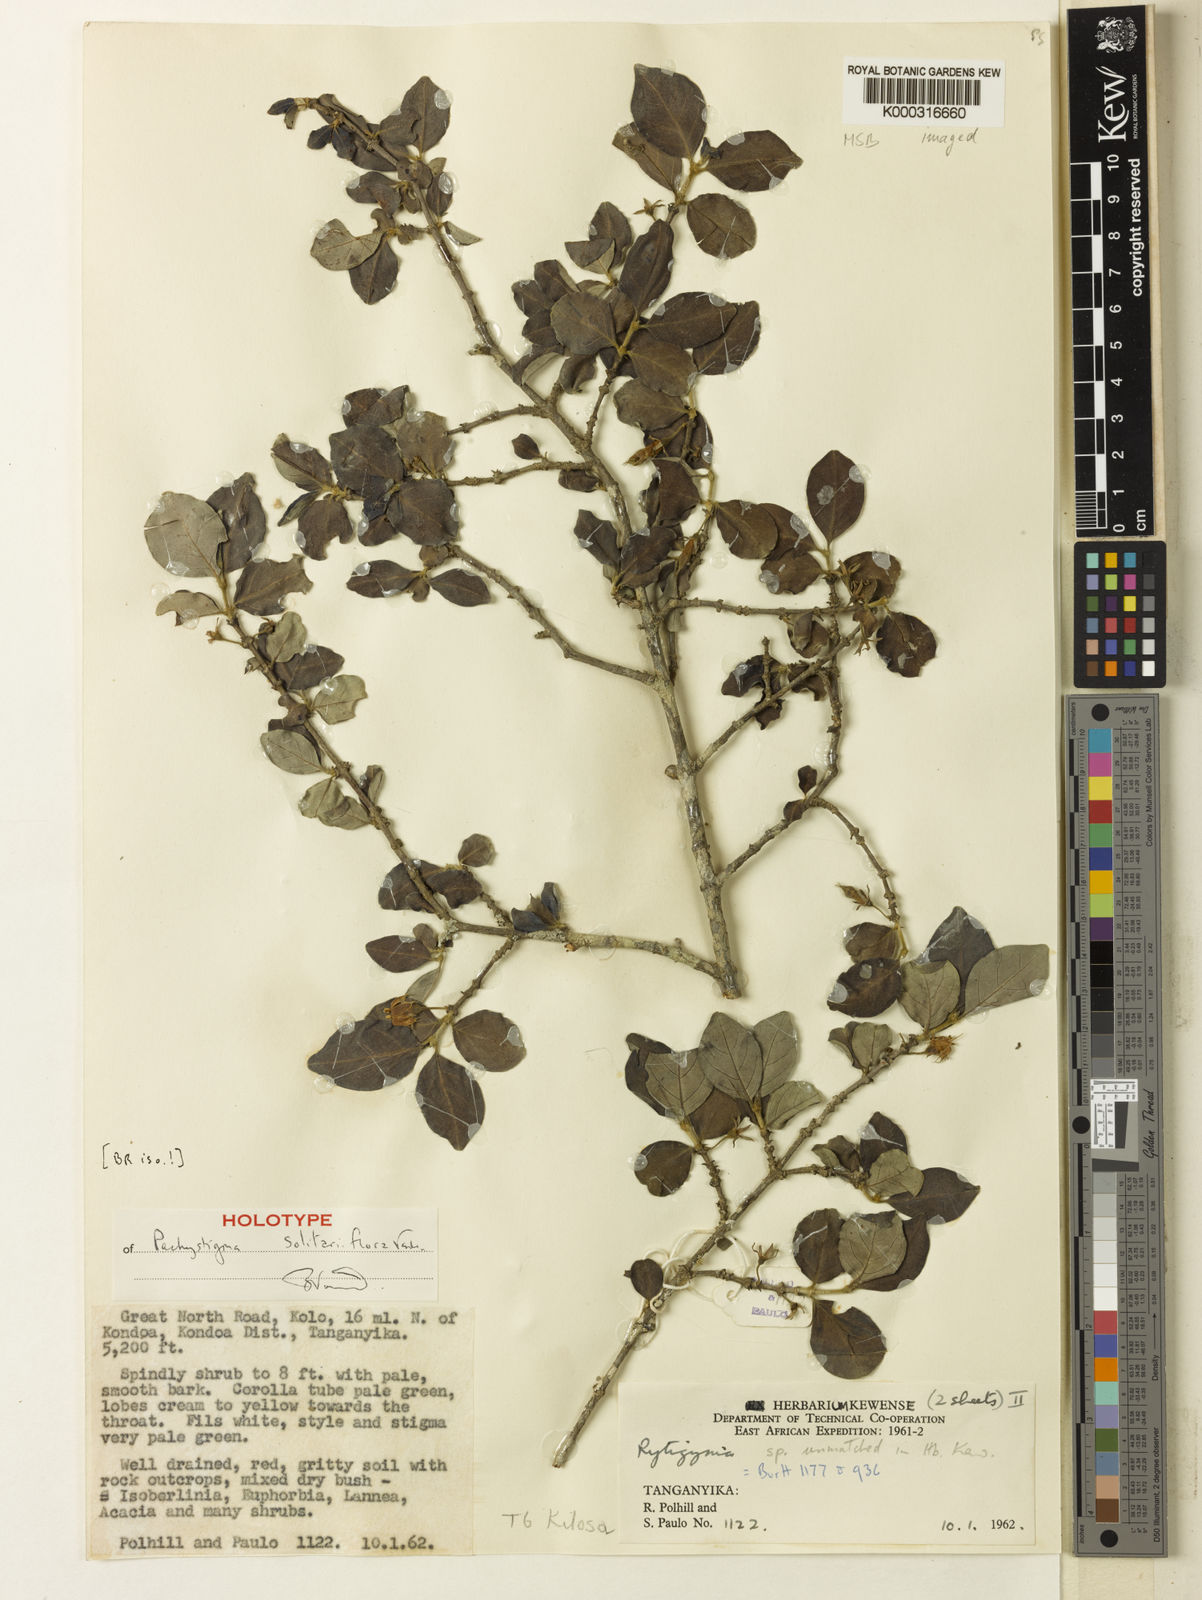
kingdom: Plantae
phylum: Tracheophyta
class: Magnoliopsida
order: Gentianales
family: Rubiaceae
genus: Vangueria
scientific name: Vangueria solitariiflora
